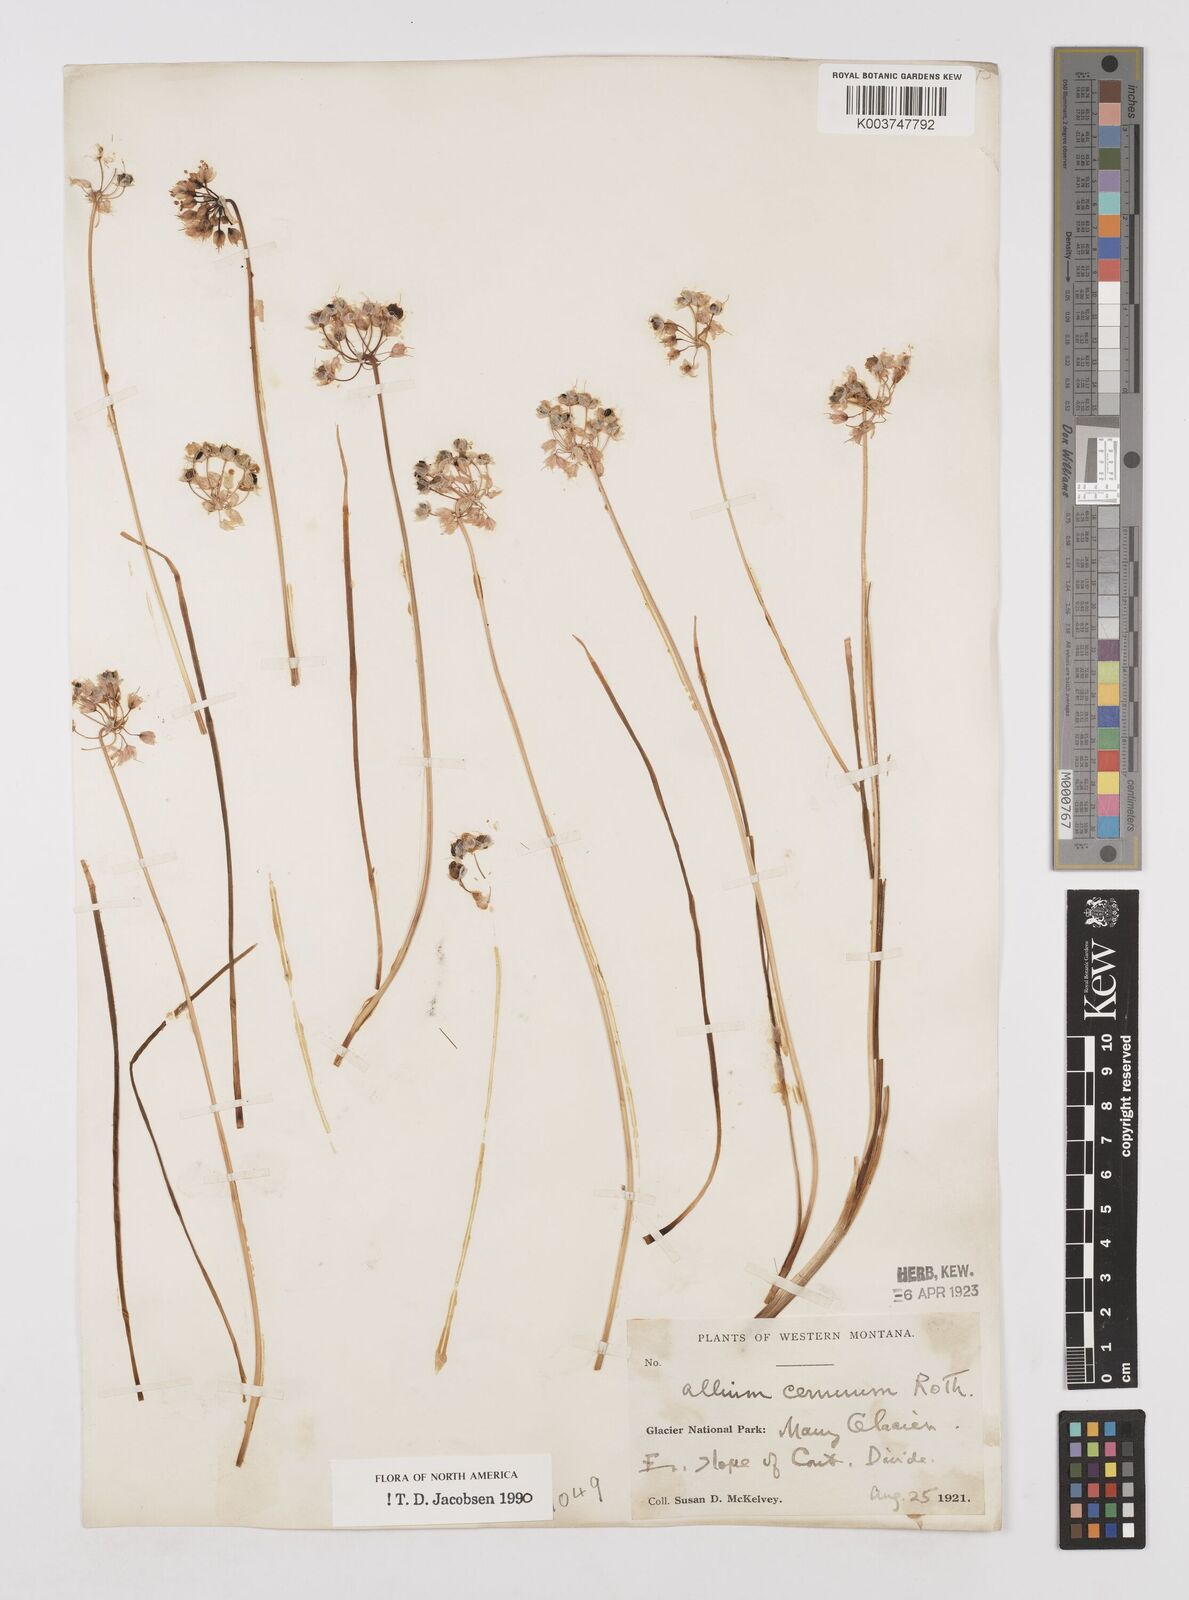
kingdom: Plantae
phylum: Tracheophyta
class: Liliopsida
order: Asparagales
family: Amaryllidaceae
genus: Allium
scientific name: Allium cernuum
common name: Nodding onion
